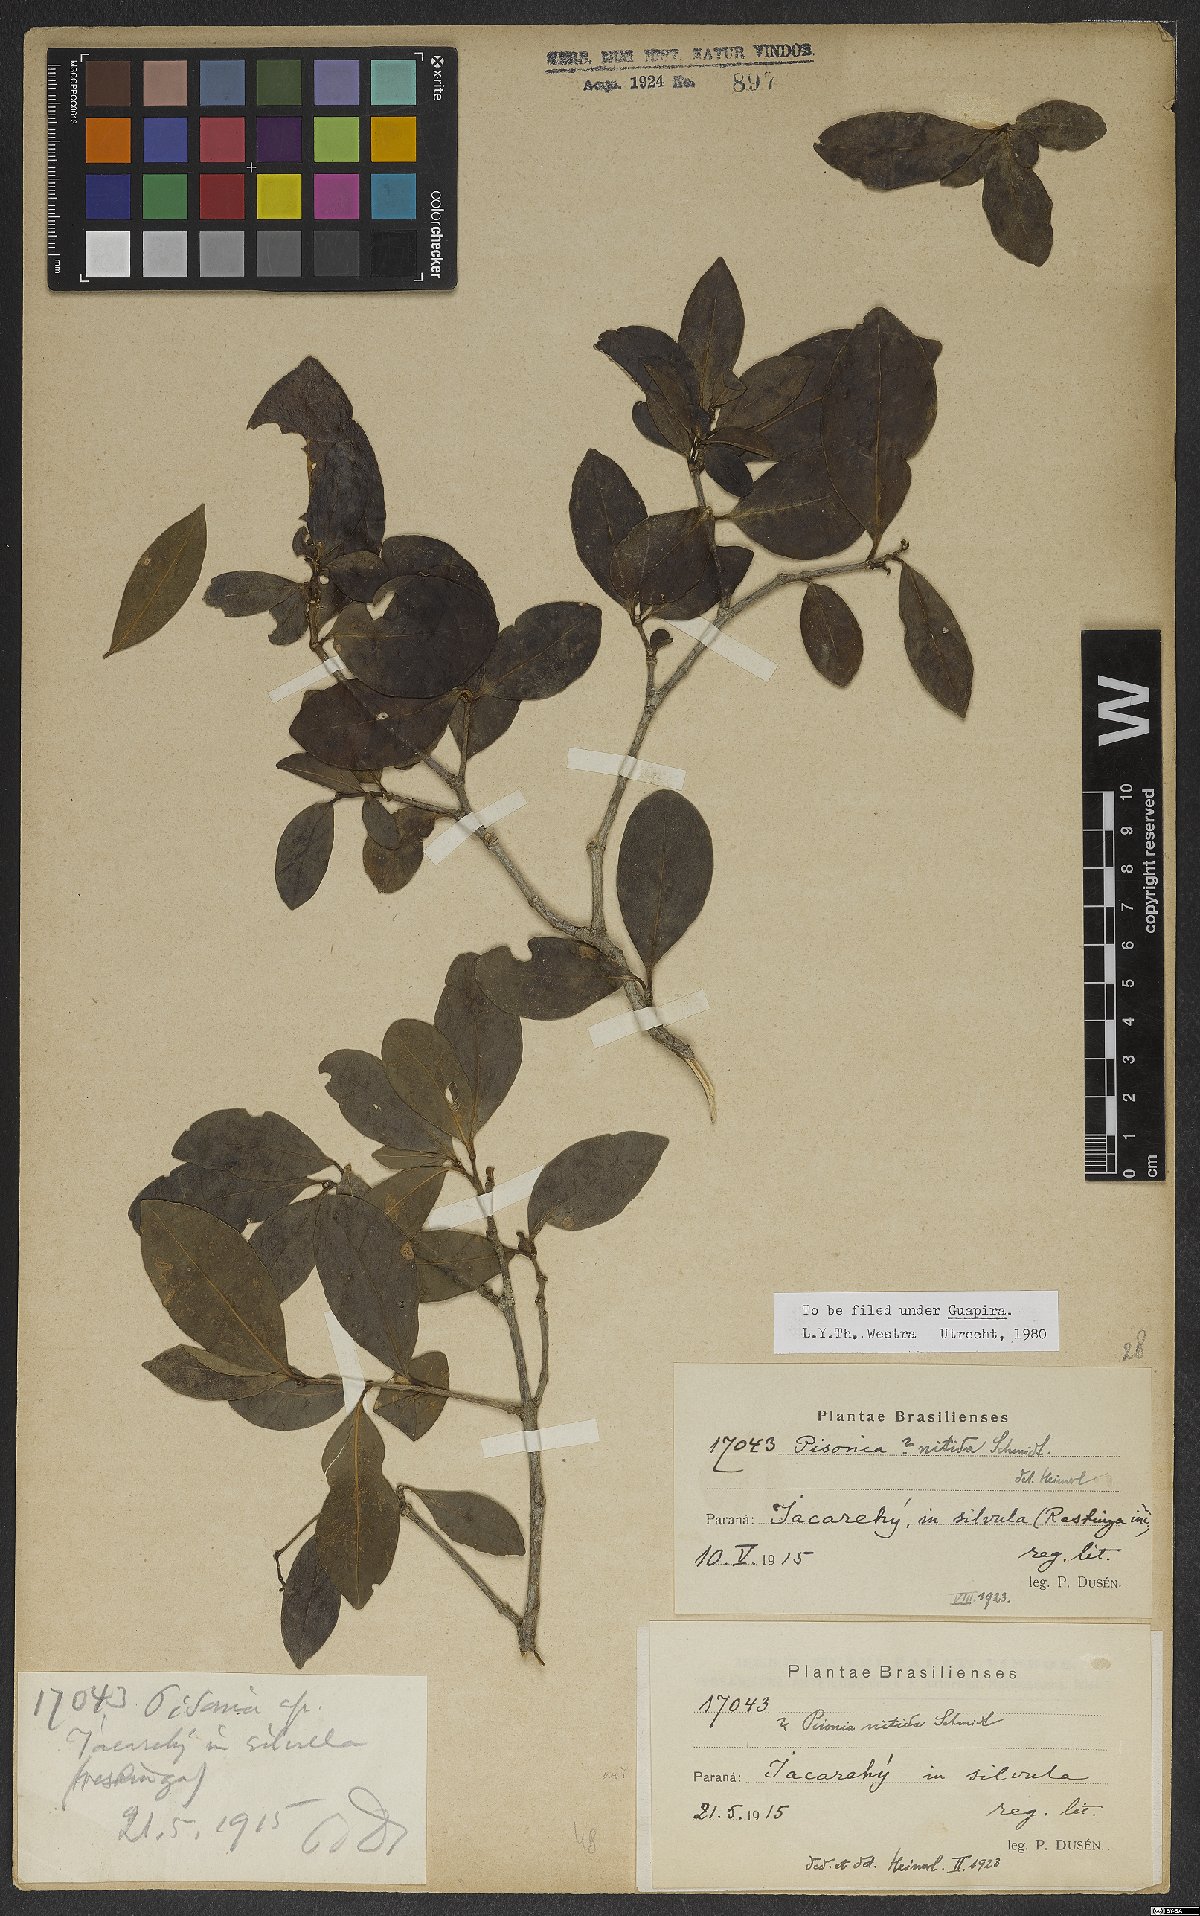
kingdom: Plantae
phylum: Tracheophyta
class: Magnoliopsida
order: Caryophyllales
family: Nyctaginaceae
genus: Guapira
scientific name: Guapira nitida
